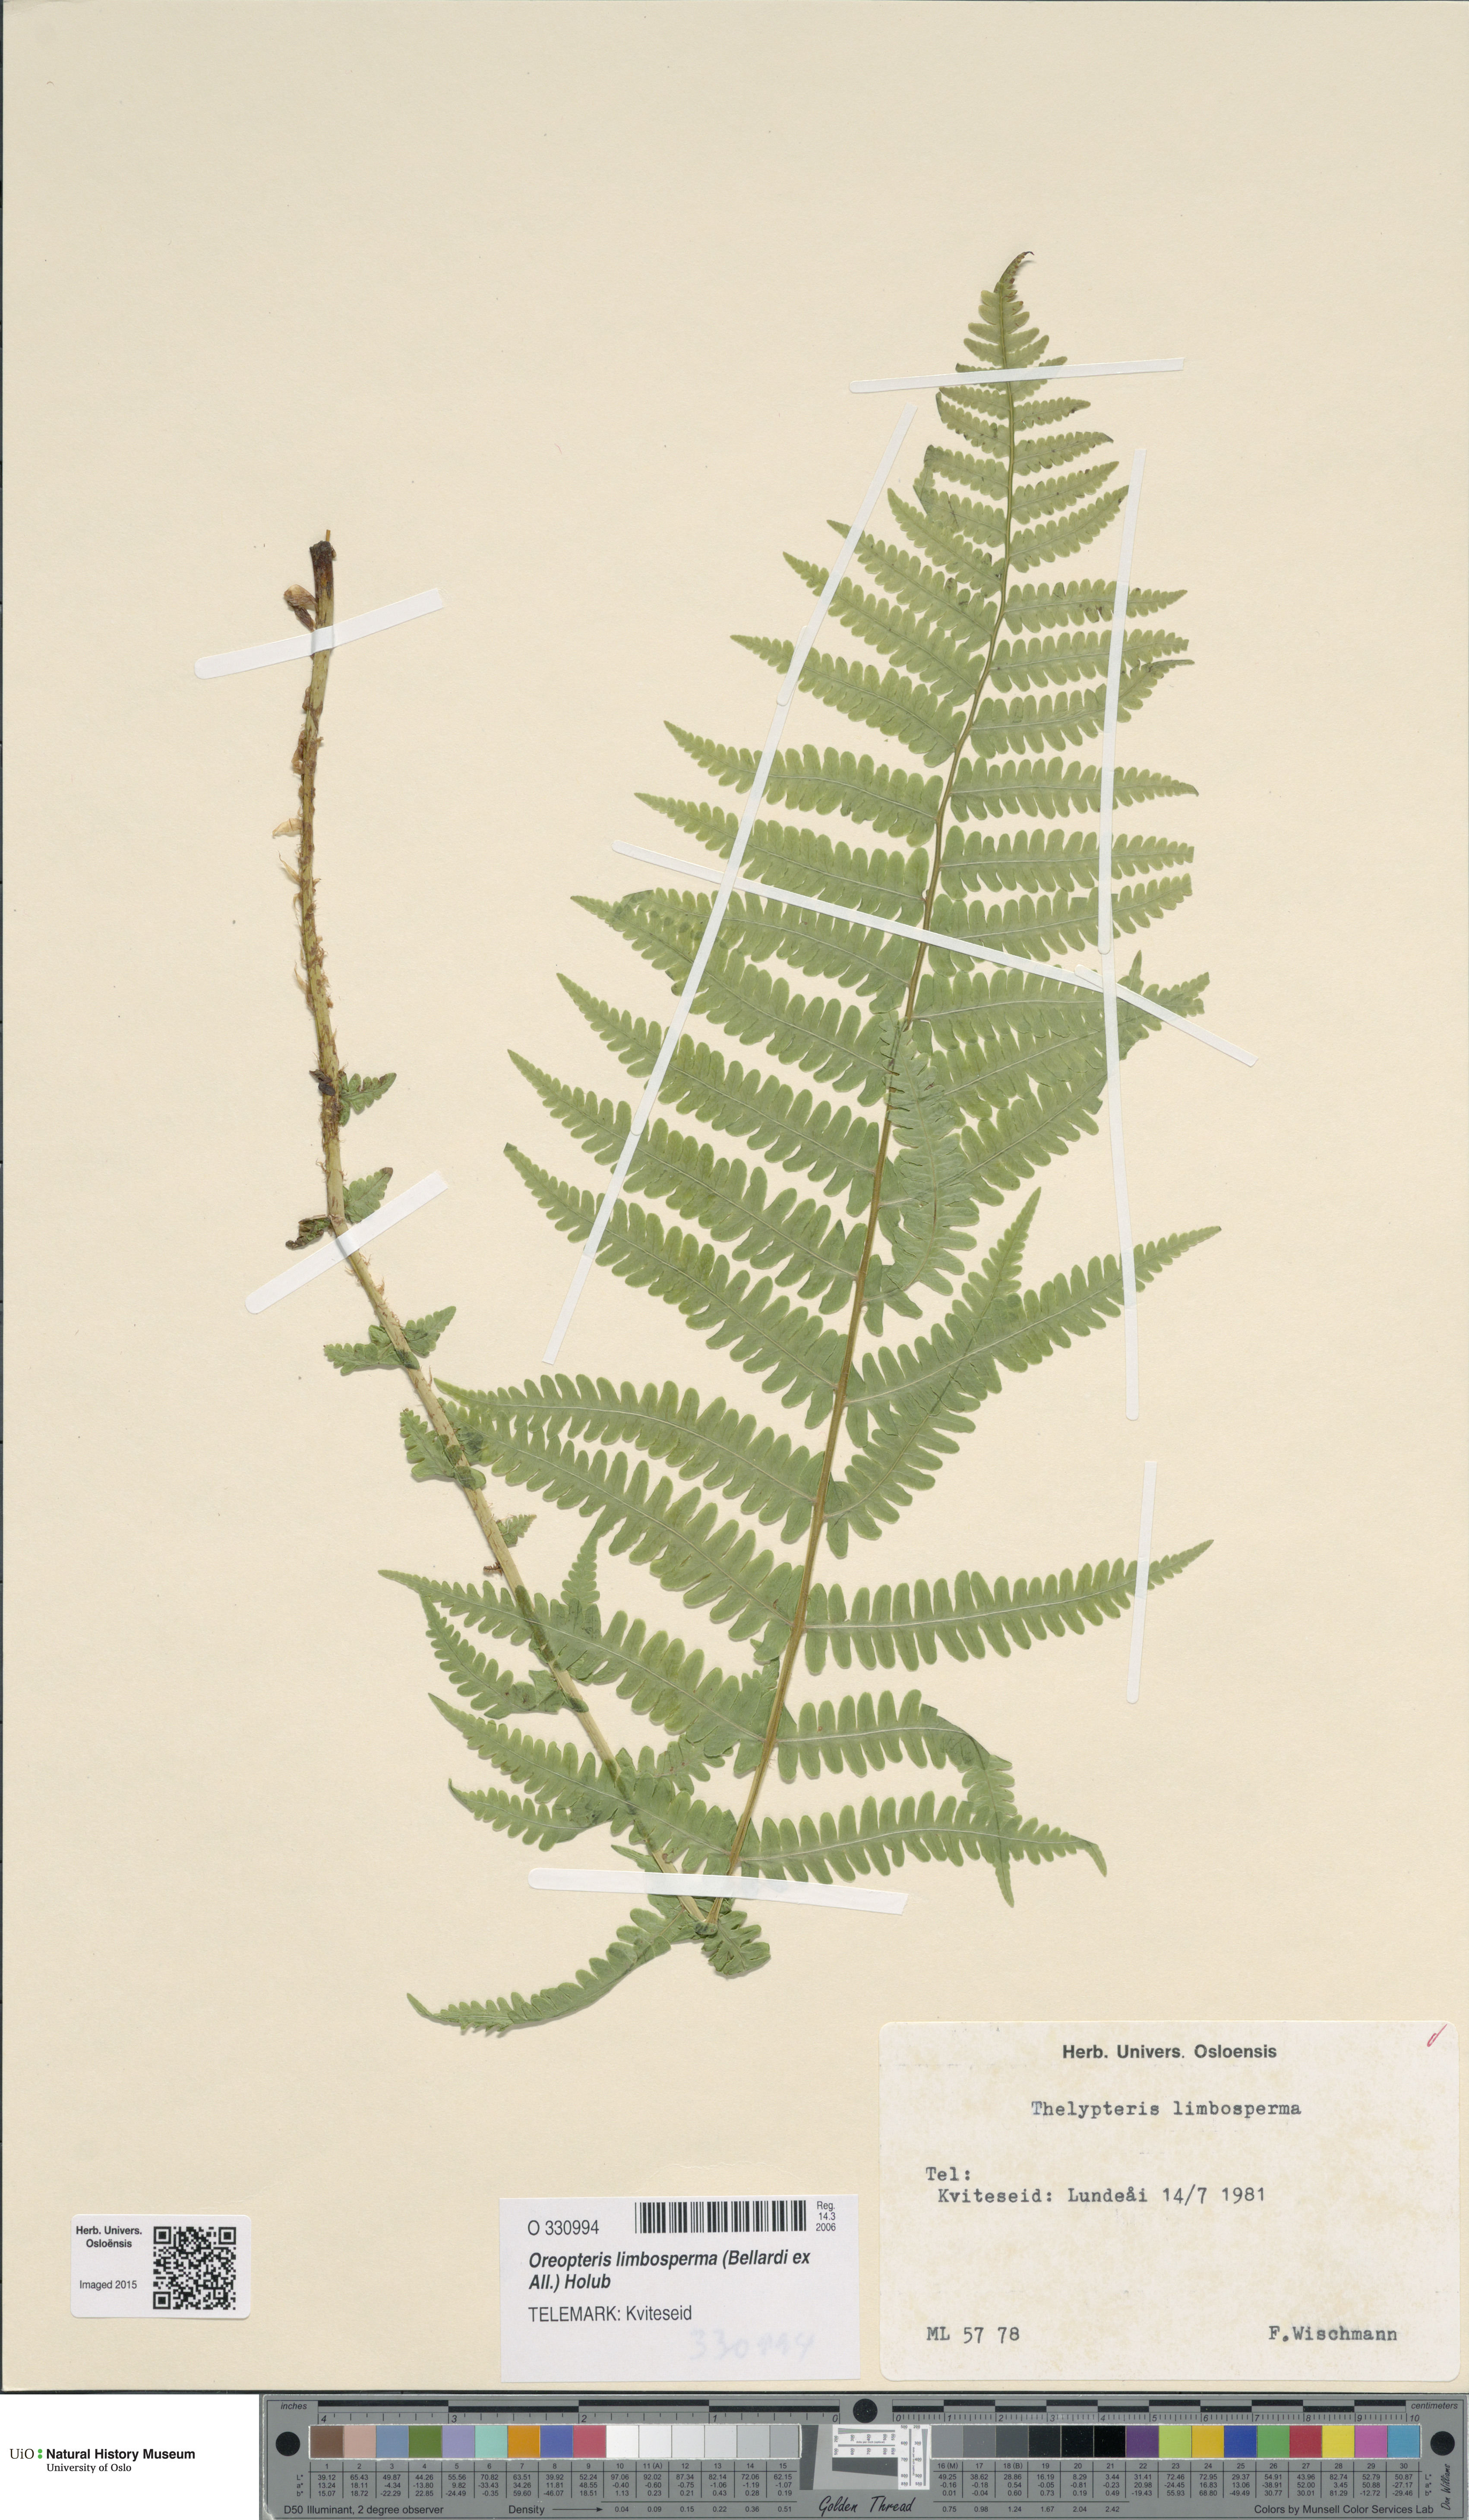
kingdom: Plantae
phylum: Tracheophyta
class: Polypodiopsida
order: Polypodiales
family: Thelypteridaceae
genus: Oreopteris
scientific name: Oreopteris limbosperma
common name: Lemon-scented fern
